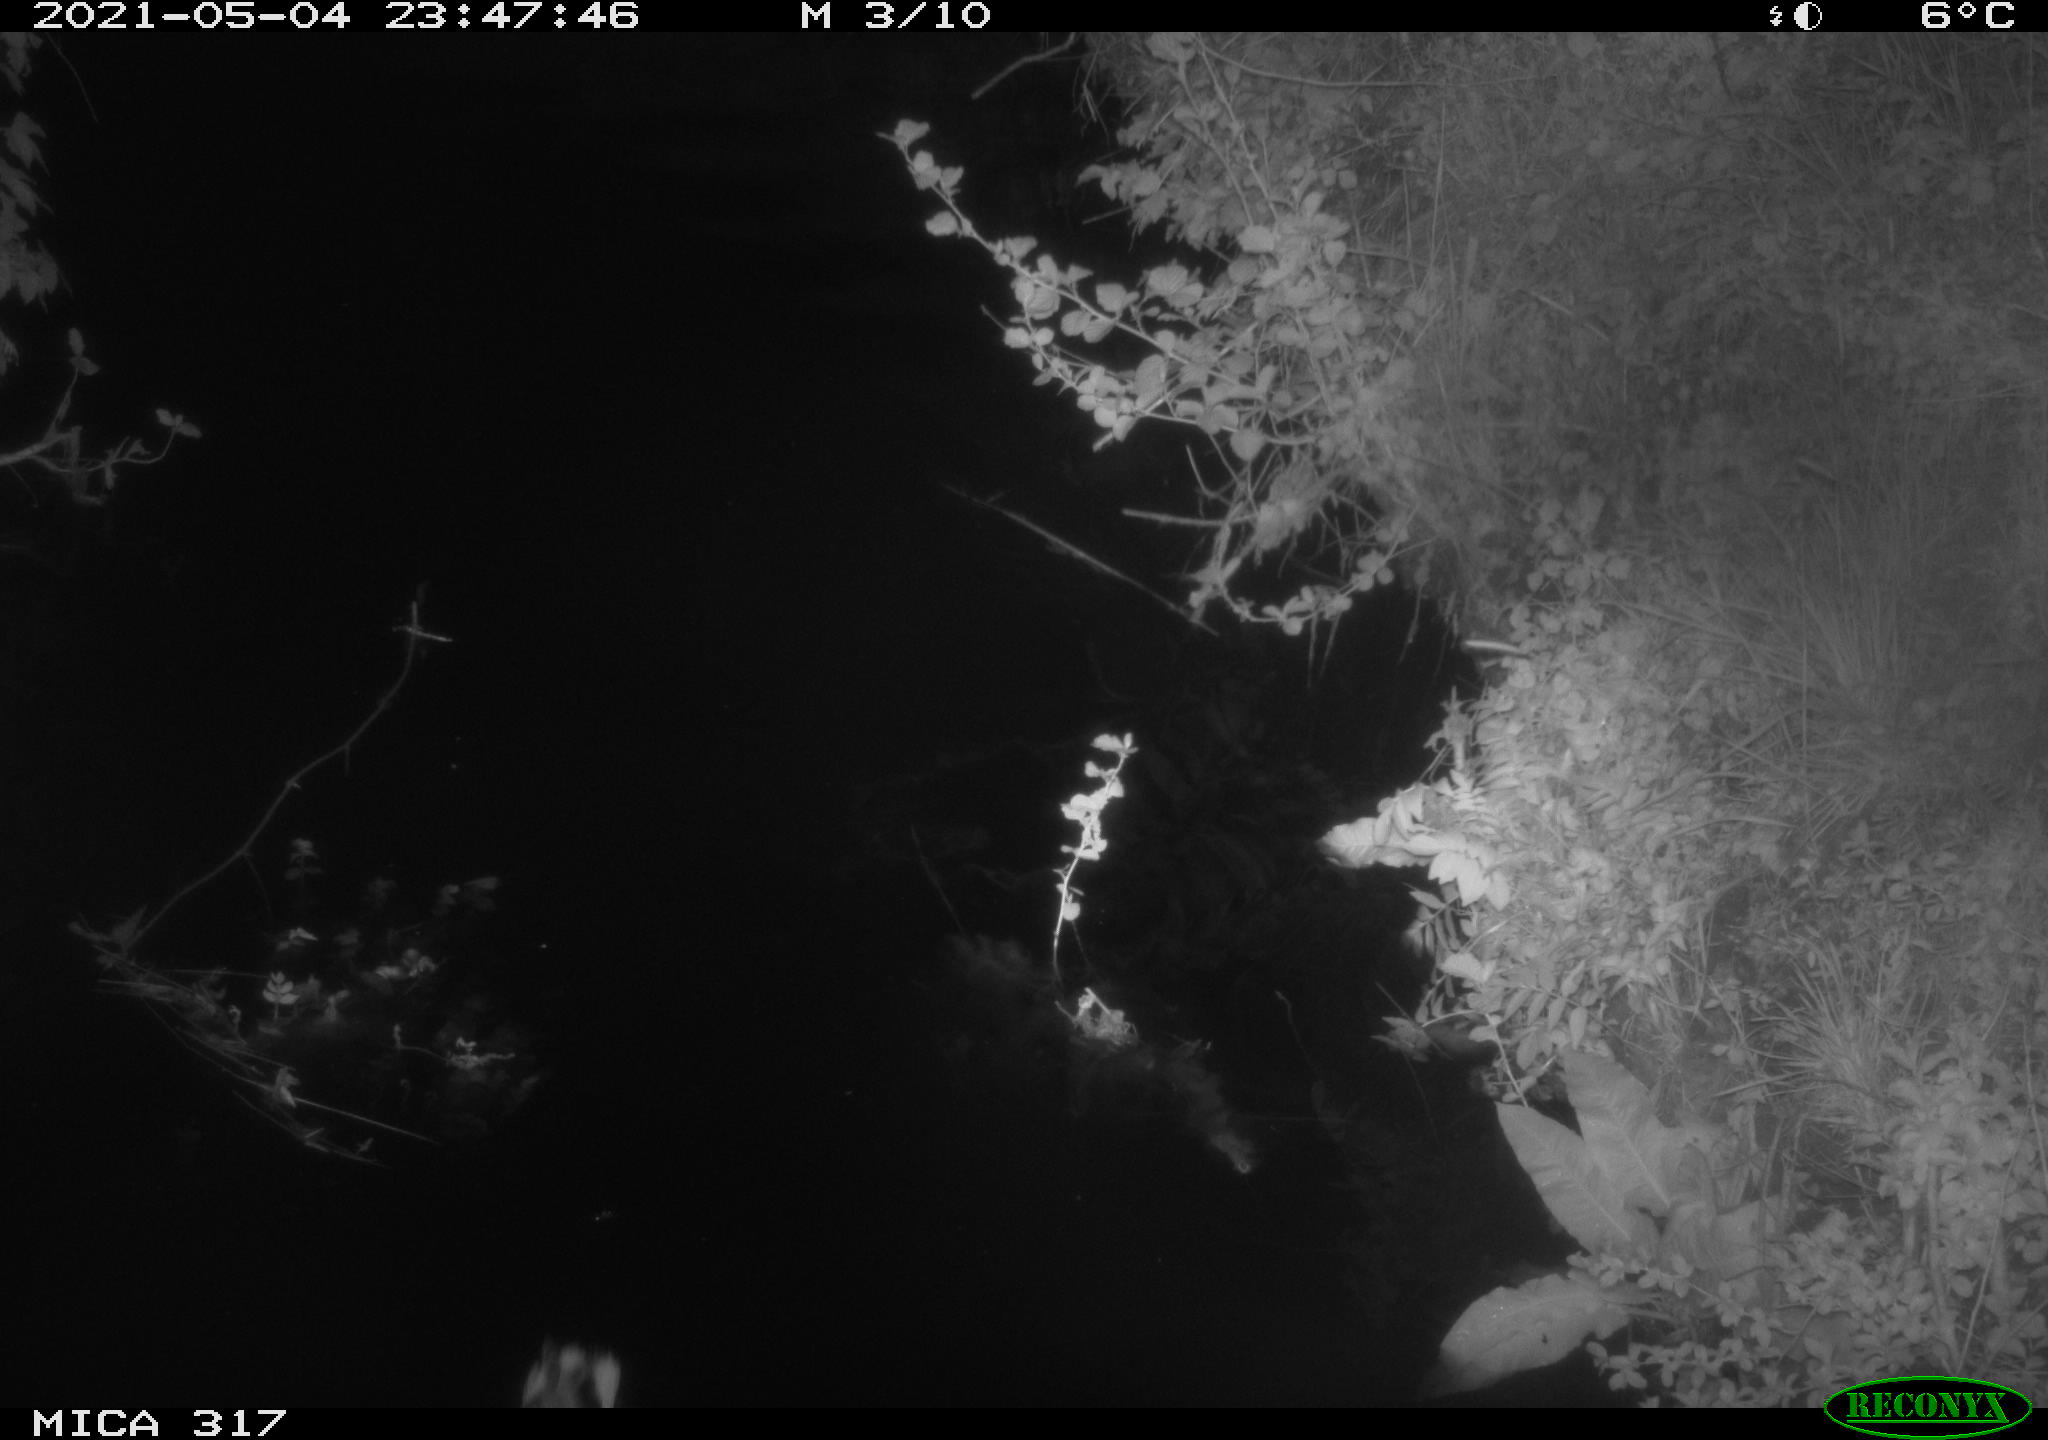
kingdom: Animalia
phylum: Chordata
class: Aves
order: Anseriformes
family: Anatidae
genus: Anas
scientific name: Anas
